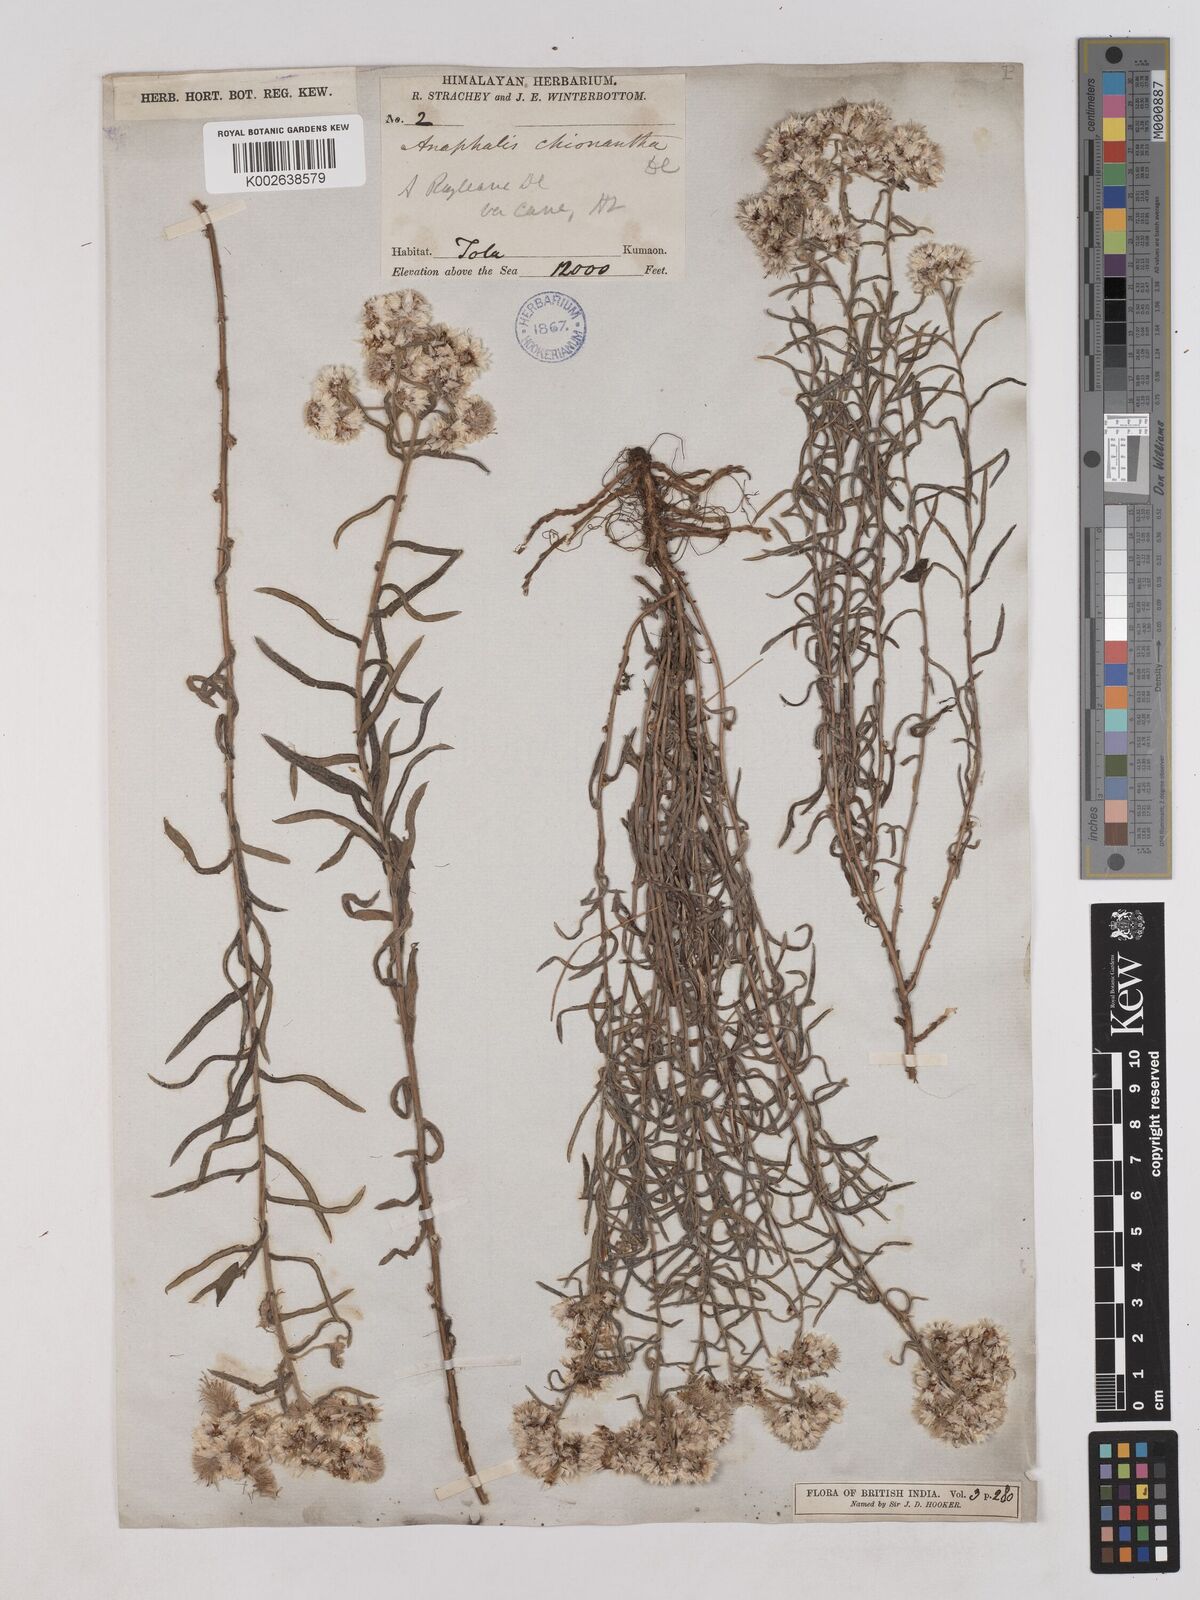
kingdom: Plantae
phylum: Tracheophyta
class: Magnoliopsida
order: Asterales
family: Asteraceae
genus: Anaphalis
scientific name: Anaphalis royleana
